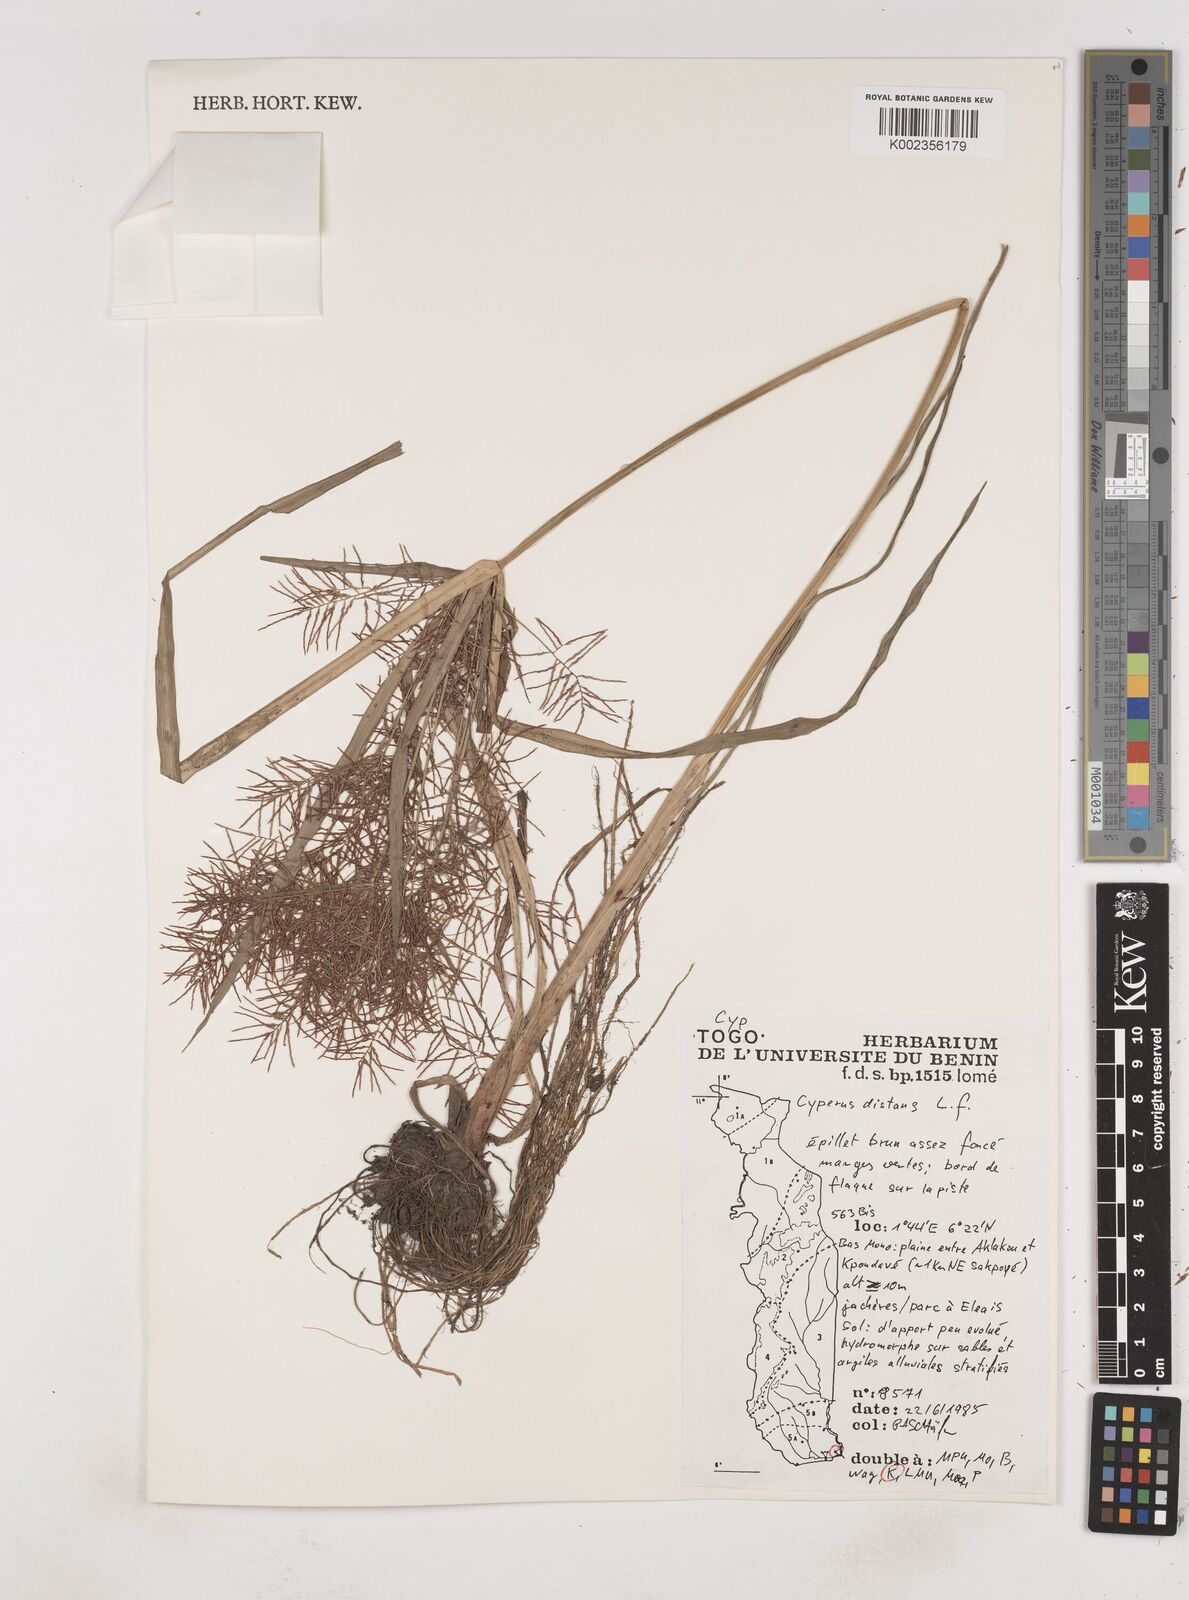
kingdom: Plantae
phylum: Tracheophyta
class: Liliopsida
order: Poales
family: Cyperaceae
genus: Cyperus
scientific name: Cyperus distans
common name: Slender cyperus
